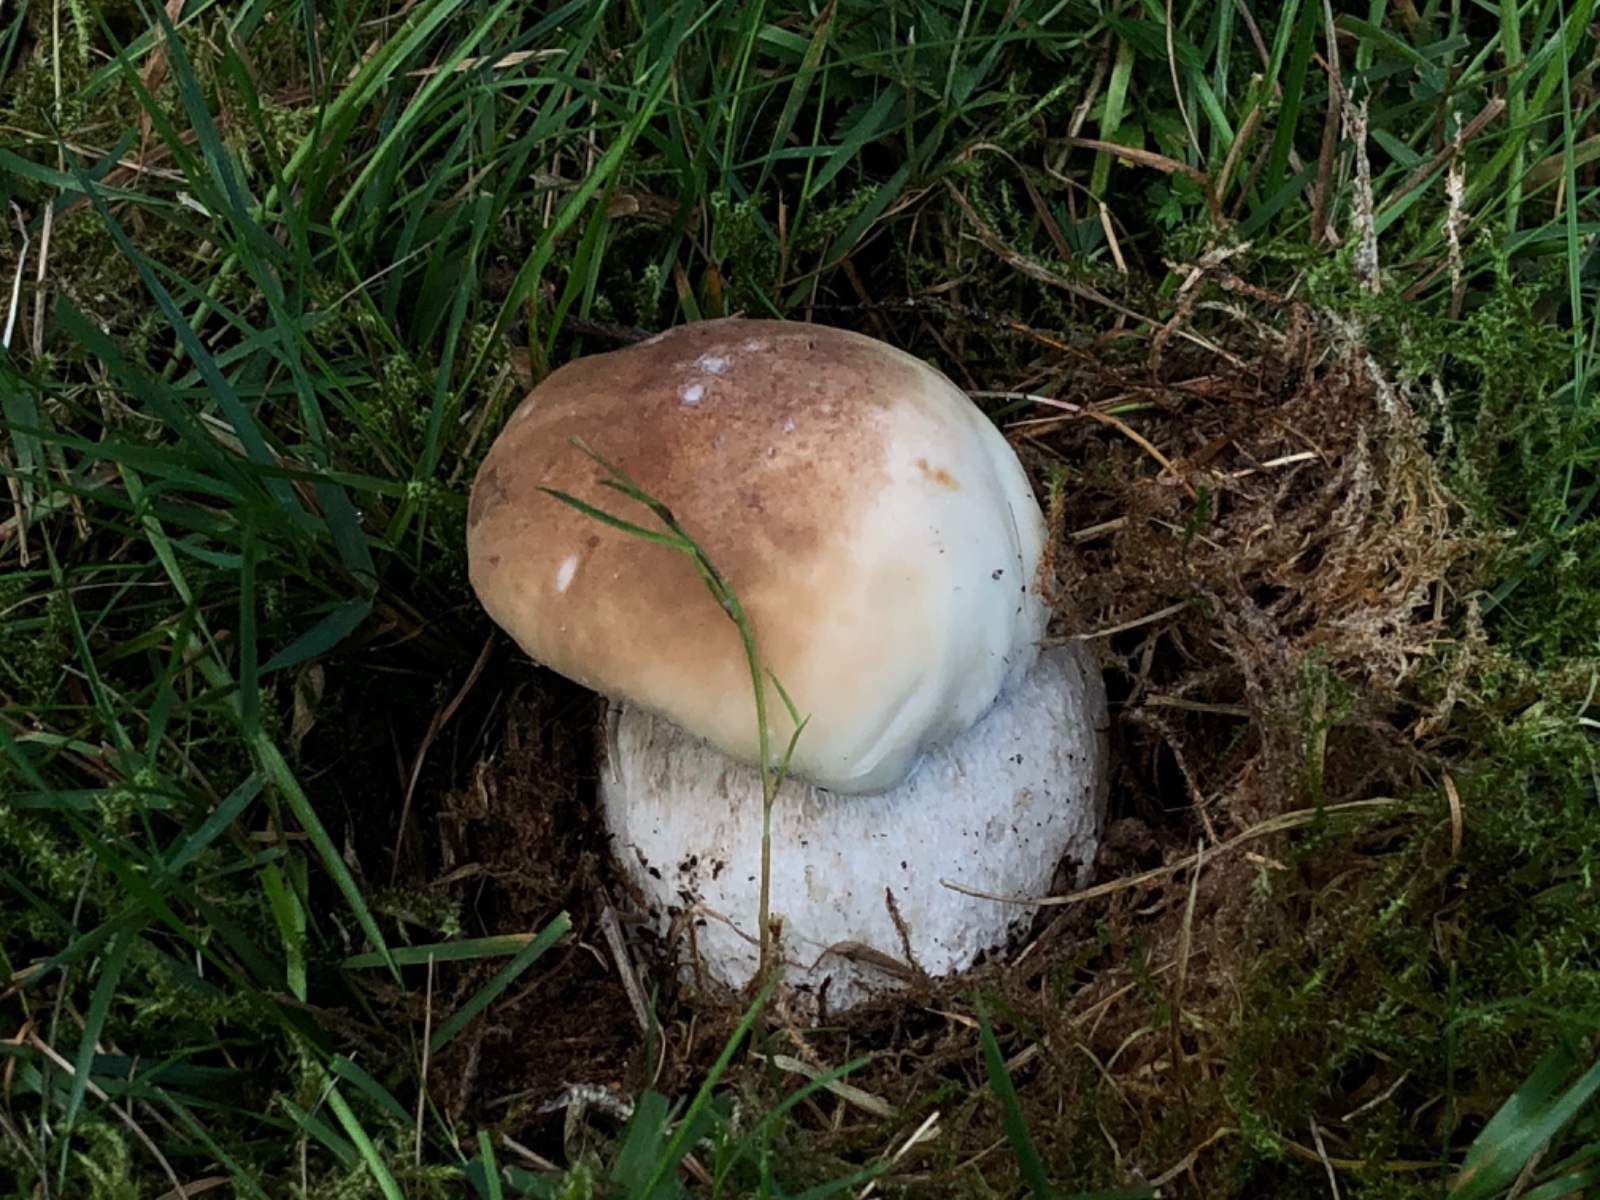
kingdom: Fungi
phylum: Basidiomycota
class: Agaricomycetes
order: Boletales
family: Boletaceae
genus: Boletus
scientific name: Boletus edulis
